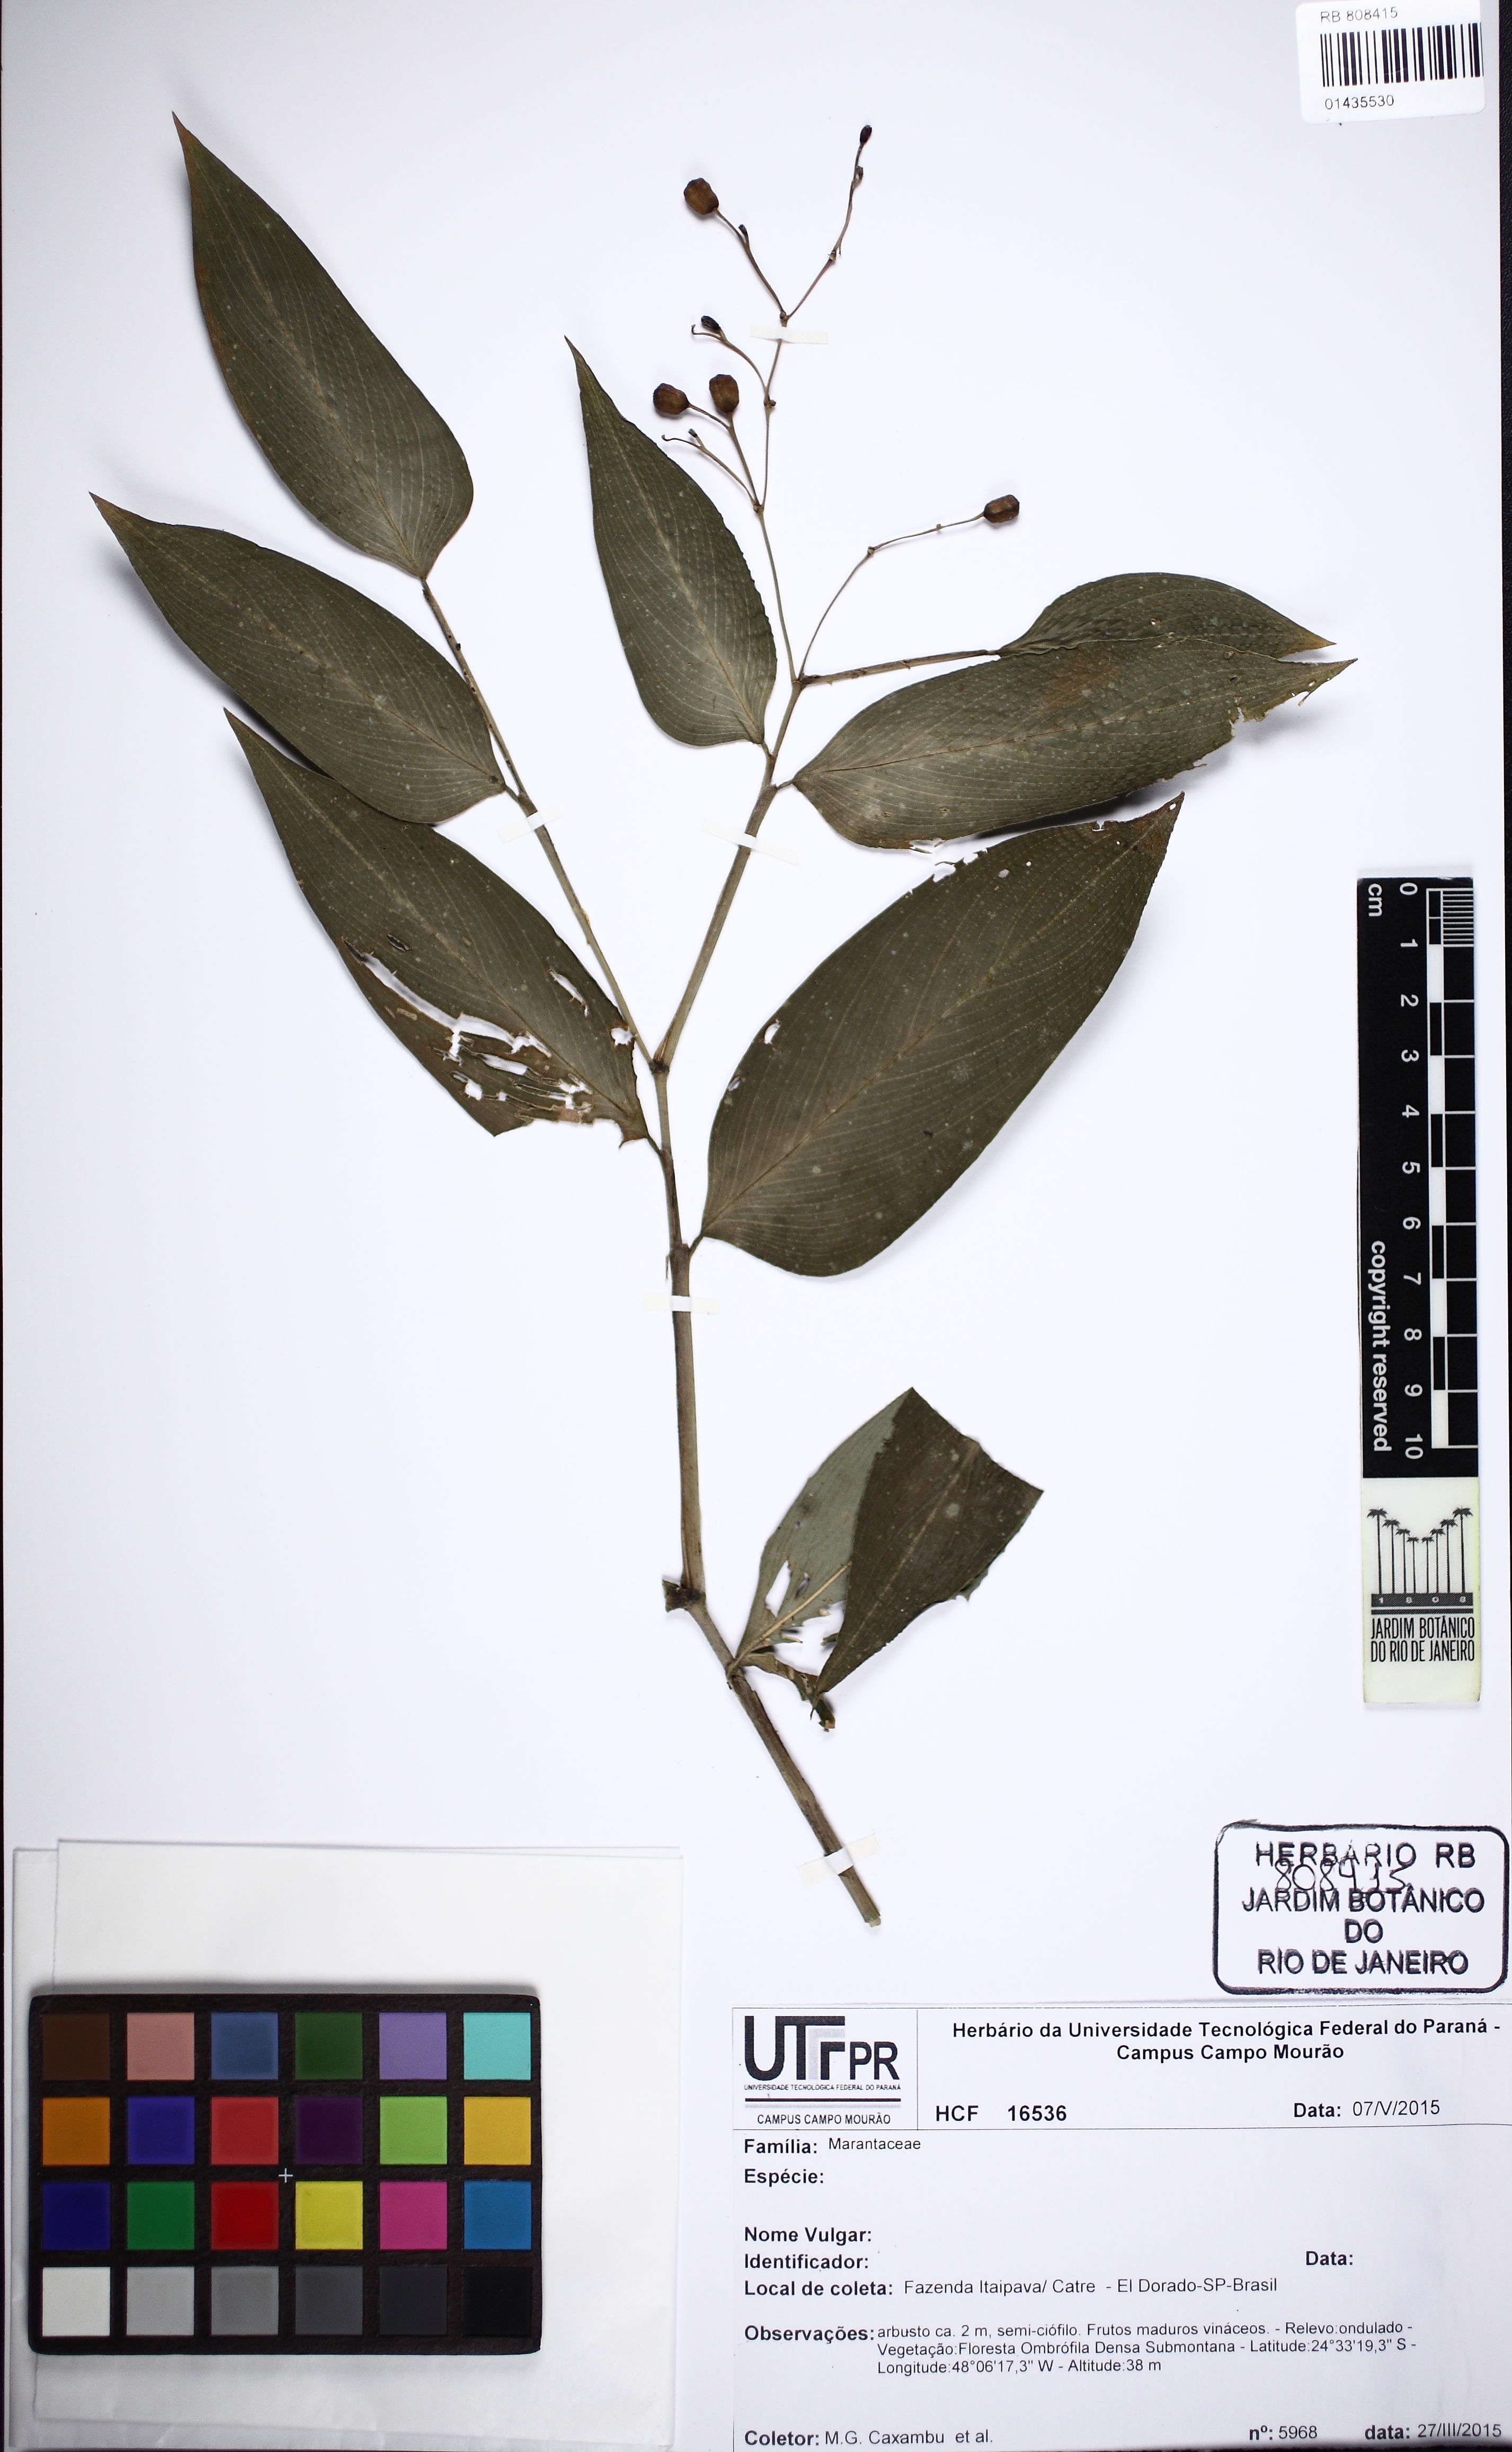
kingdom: Plantae
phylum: Tracheophyta
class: Liliopsida
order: Zingiberales
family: Marantaceae
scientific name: Marantaceae
